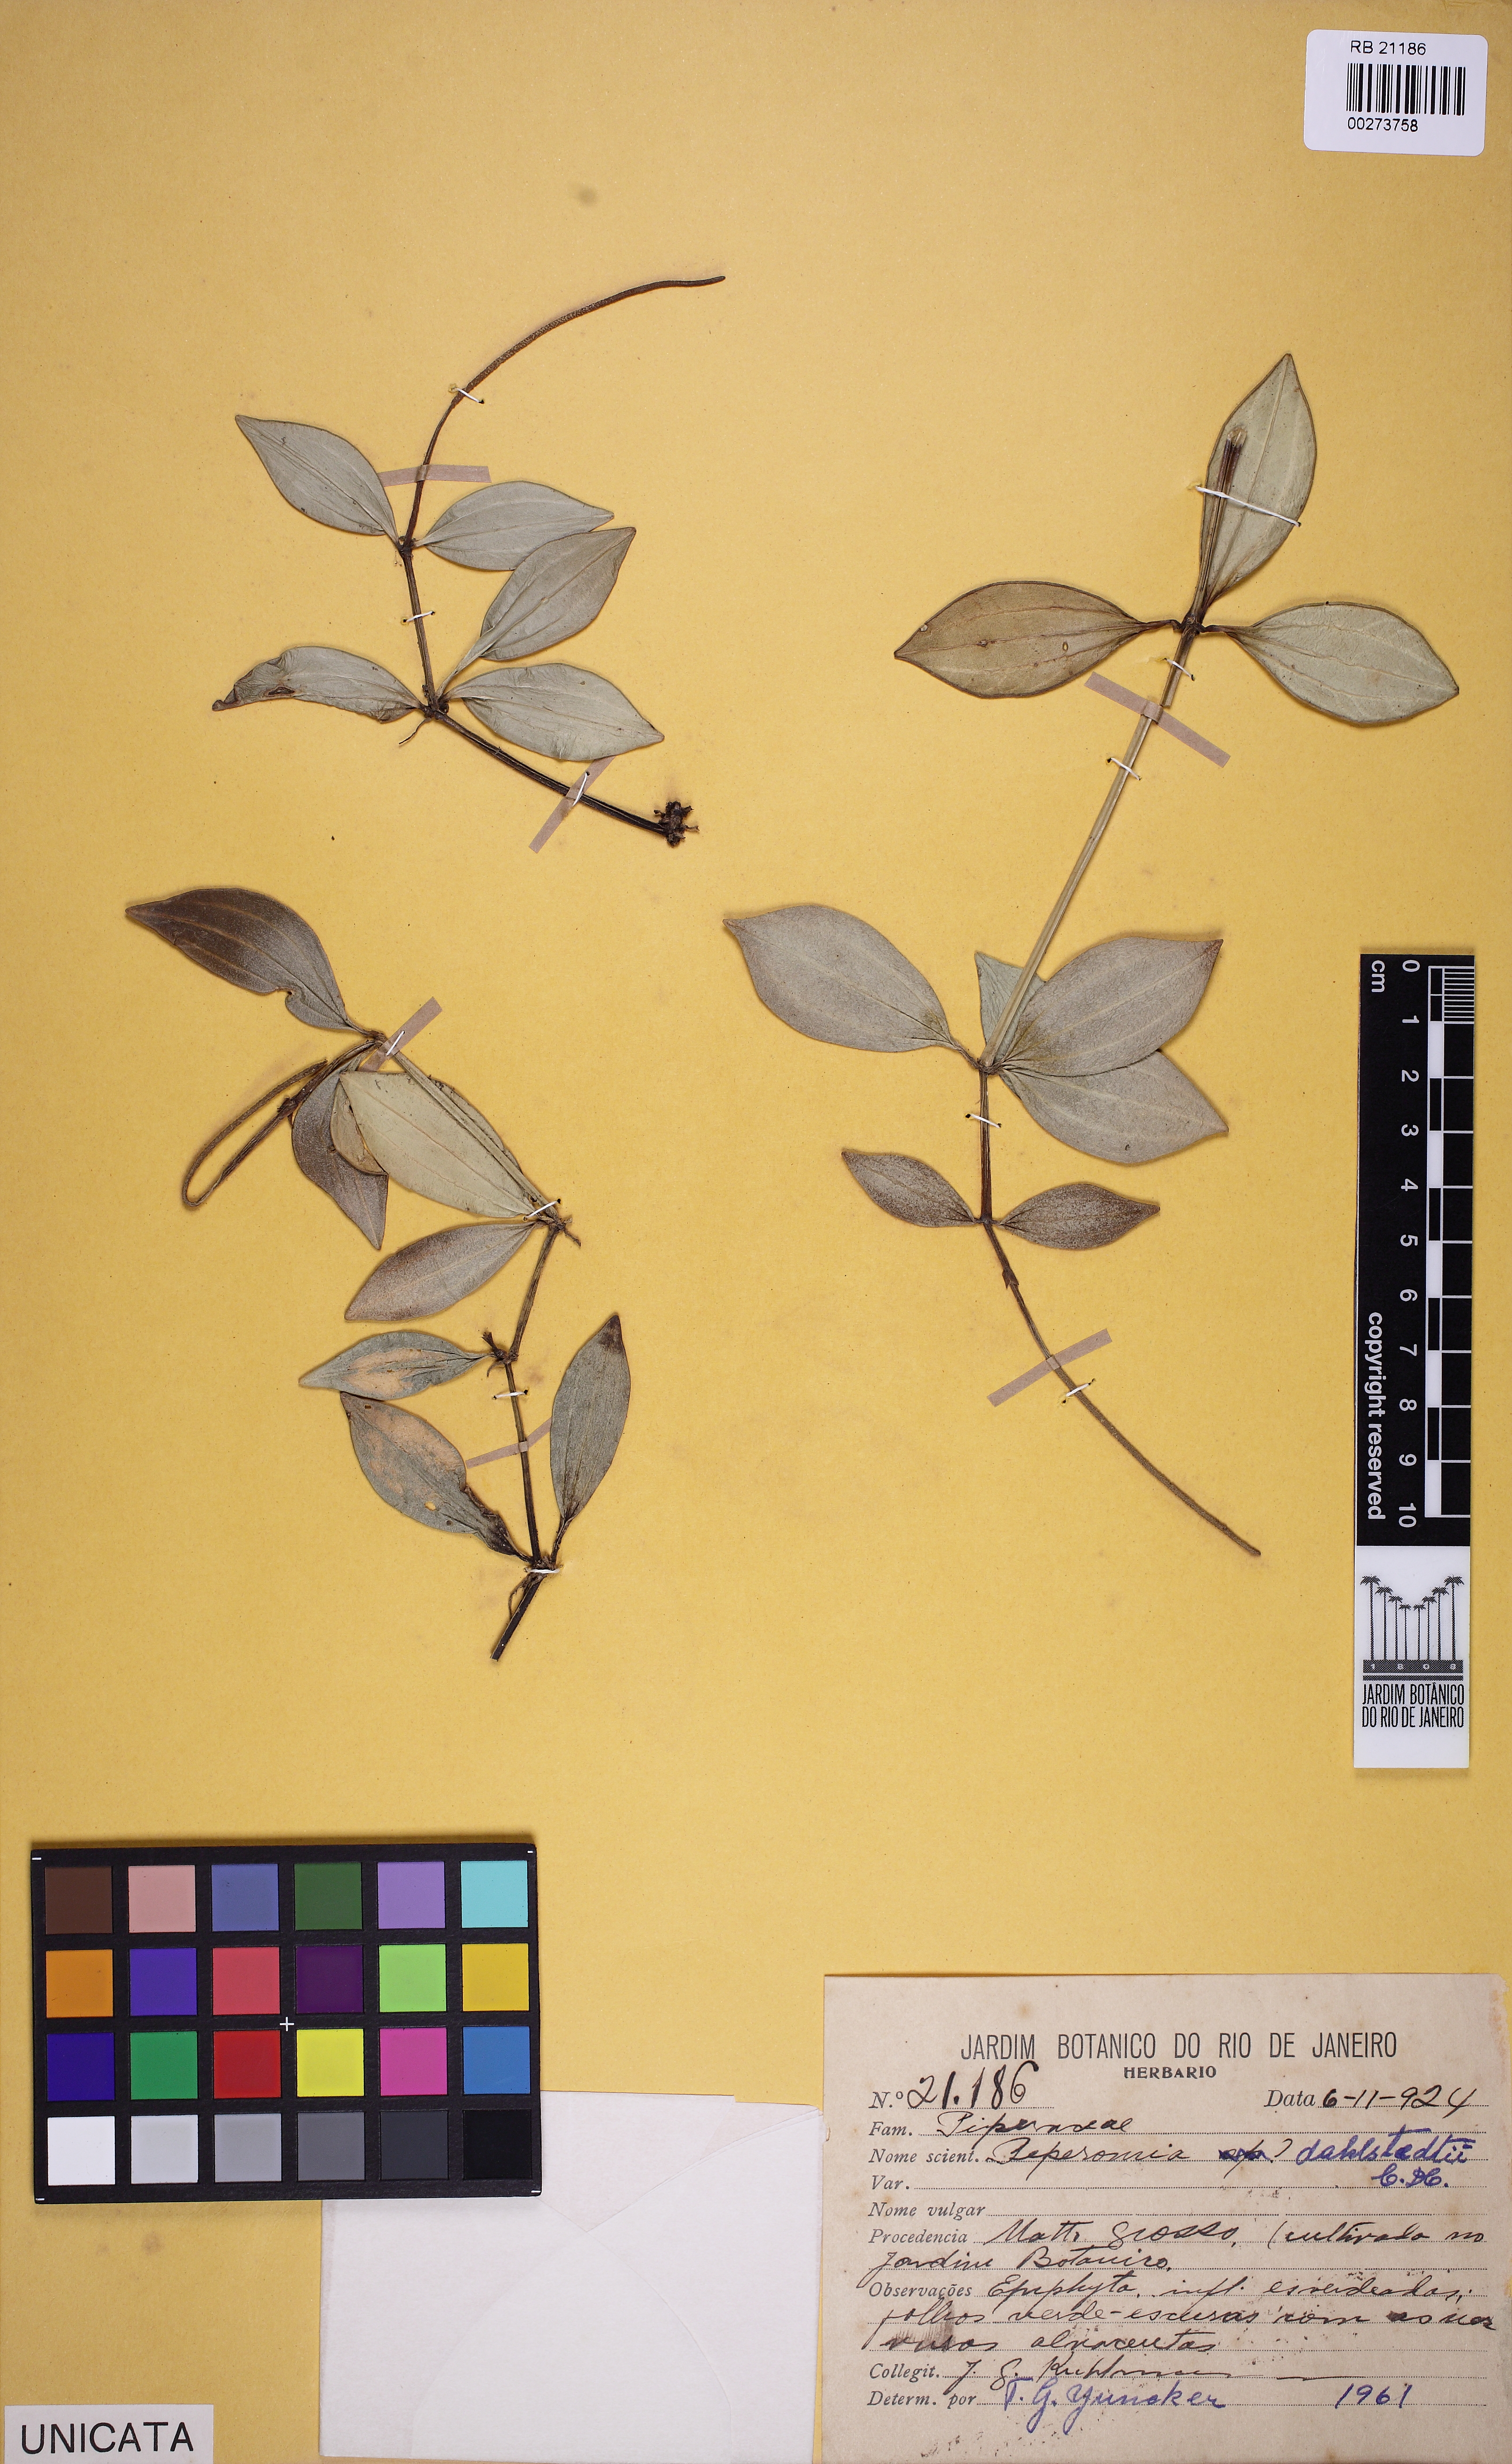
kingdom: Plantae
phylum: Tracheophyta
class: Magnoliopsida
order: Piperales
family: Piperaceae
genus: Peperomia
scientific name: Peperomia dahlstedtii
